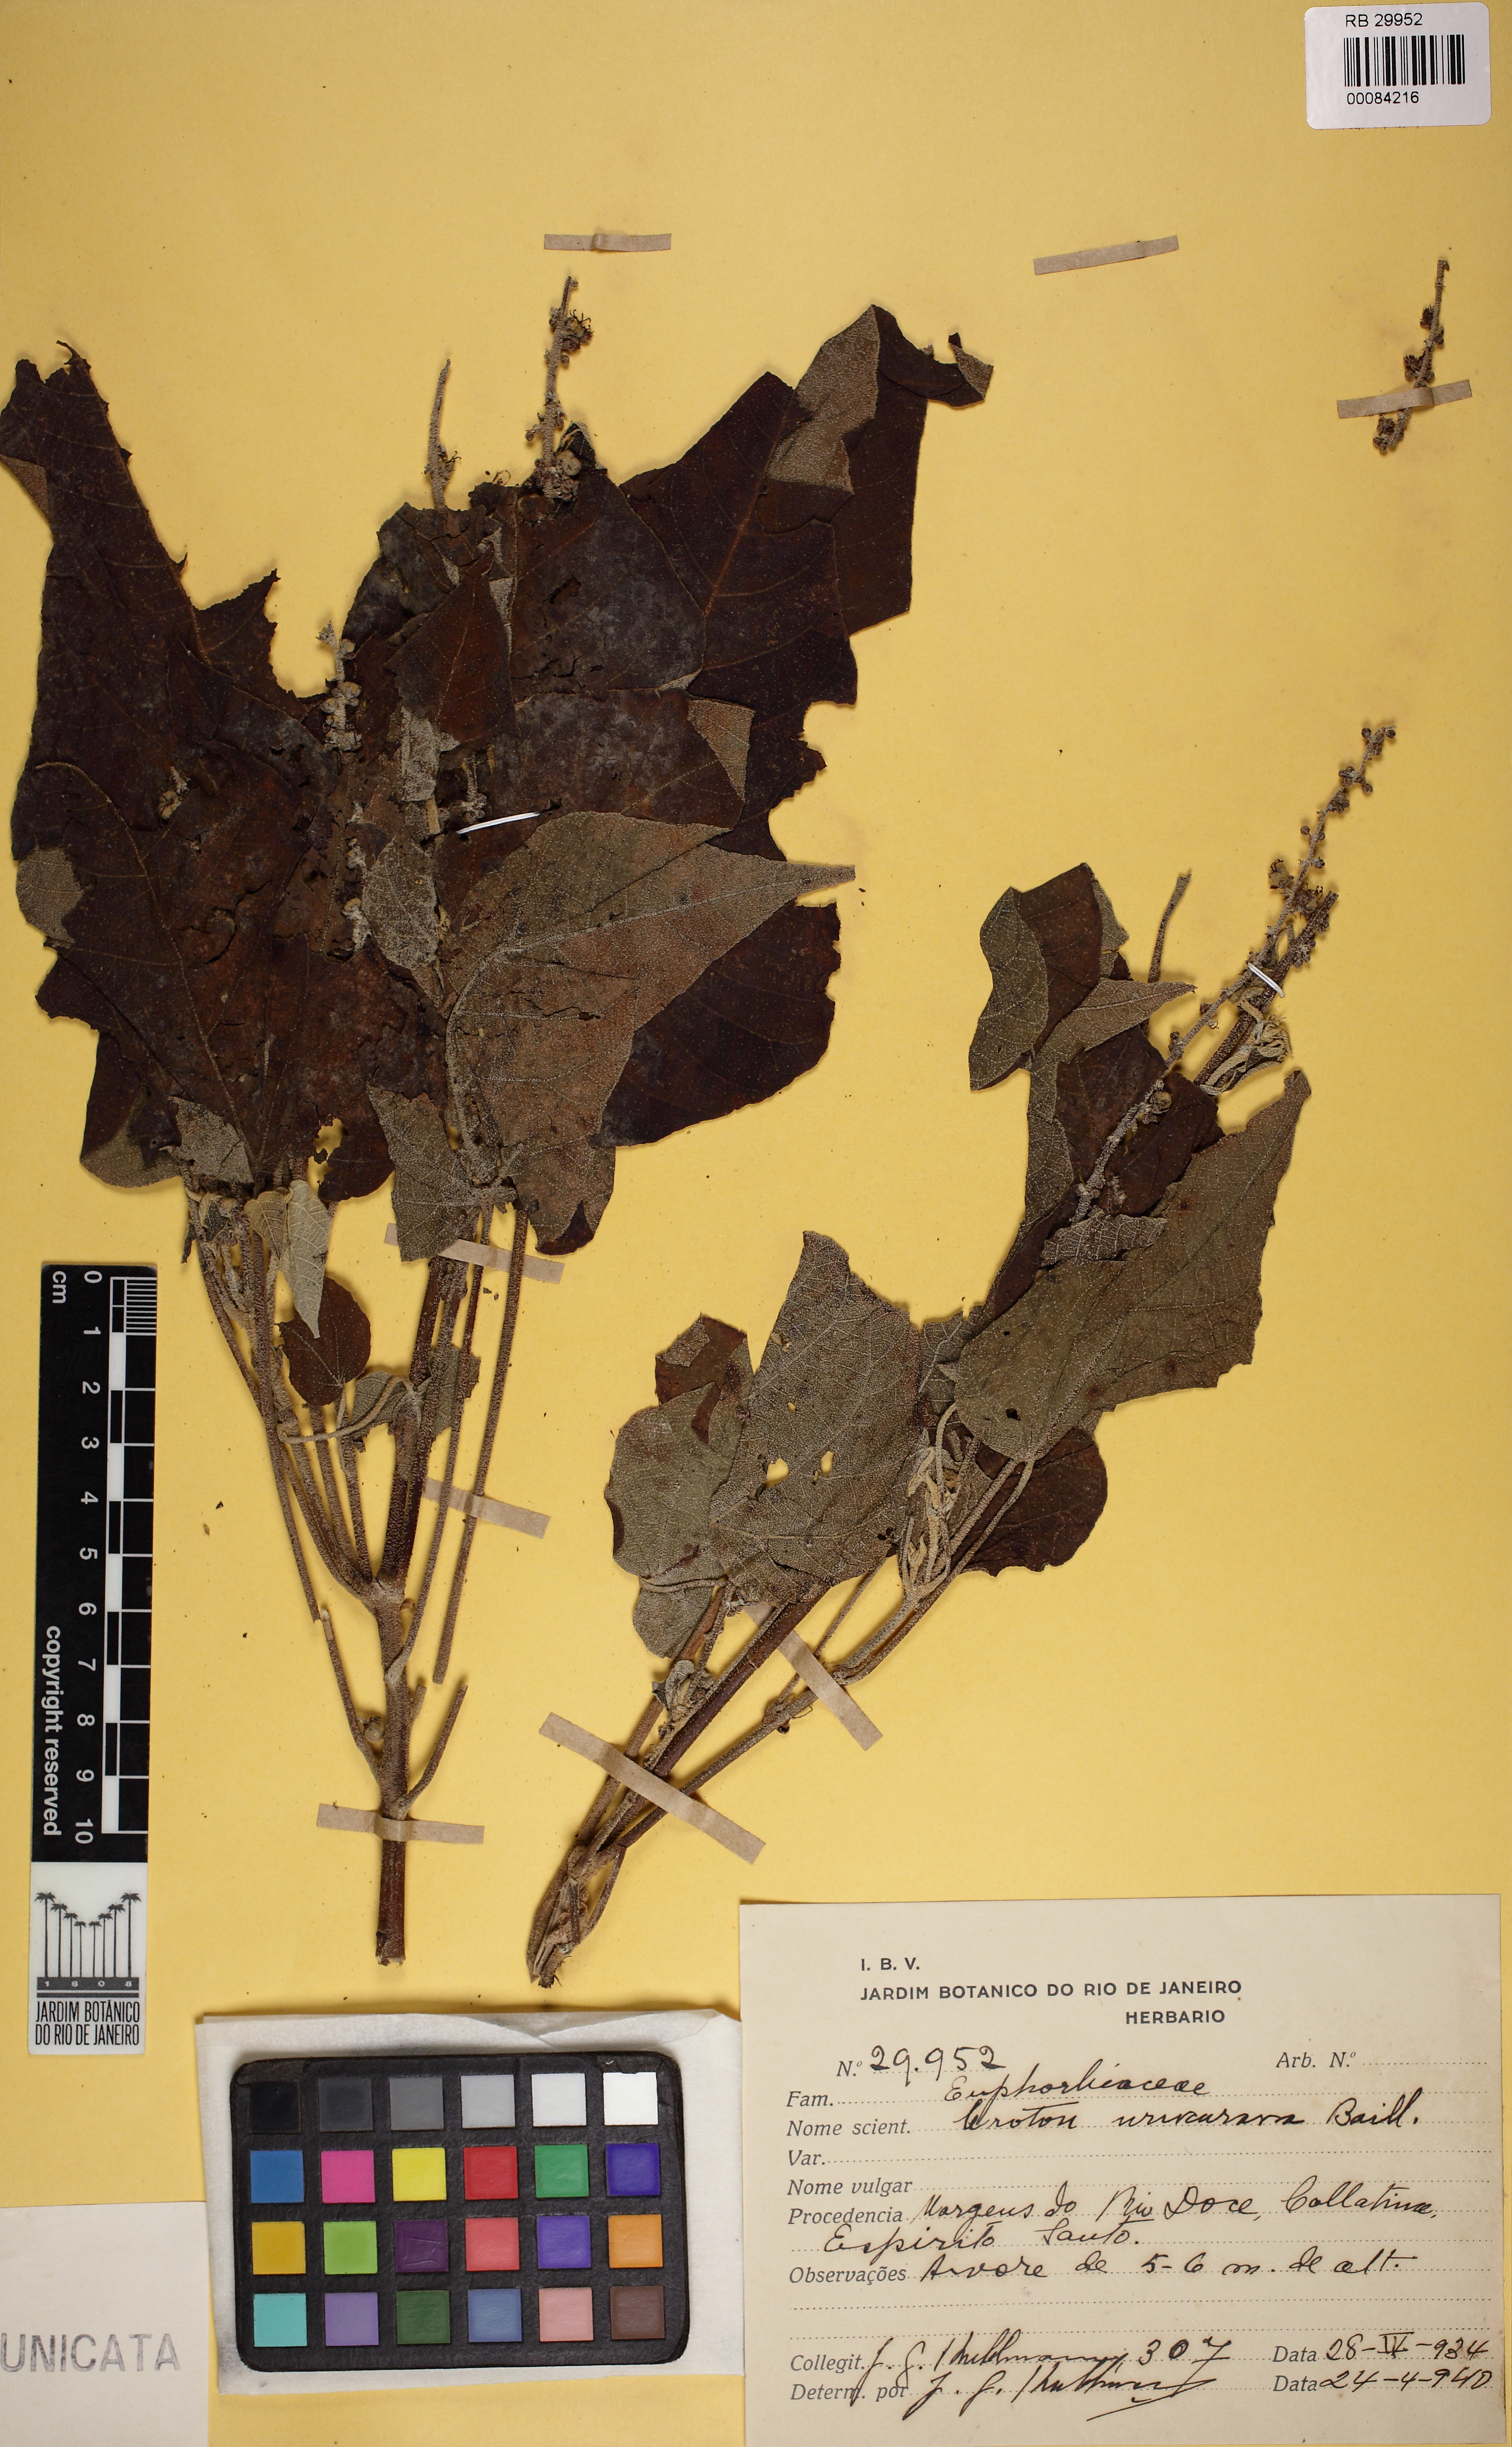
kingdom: Plantae
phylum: Tracheophyta
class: Magnoliopsida
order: Malpighiales
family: Euphorbiaceae
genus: Croton
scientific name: Croton urucurana
